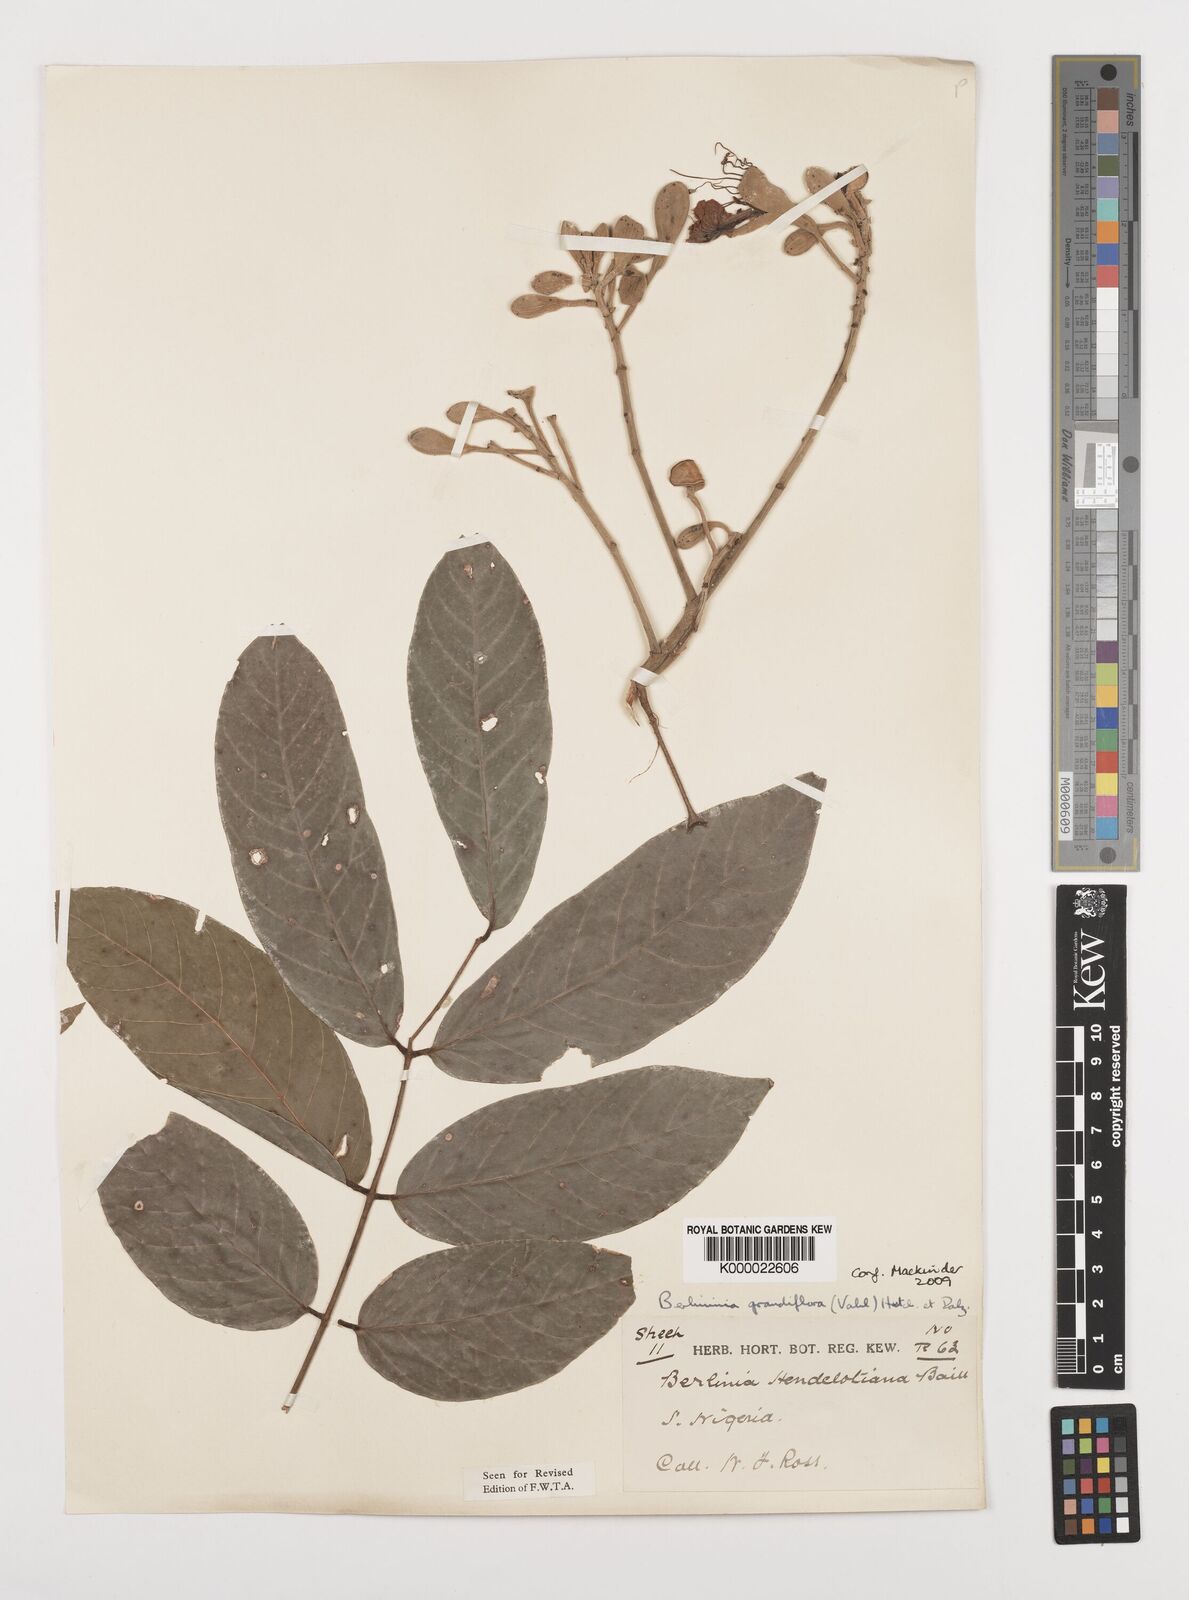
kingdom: Plantae
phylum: Tracheophyta
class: Magnoliopsida
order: Fabales
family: Fabaceae
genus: Berlinia
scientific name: Berlinia grandiflora
